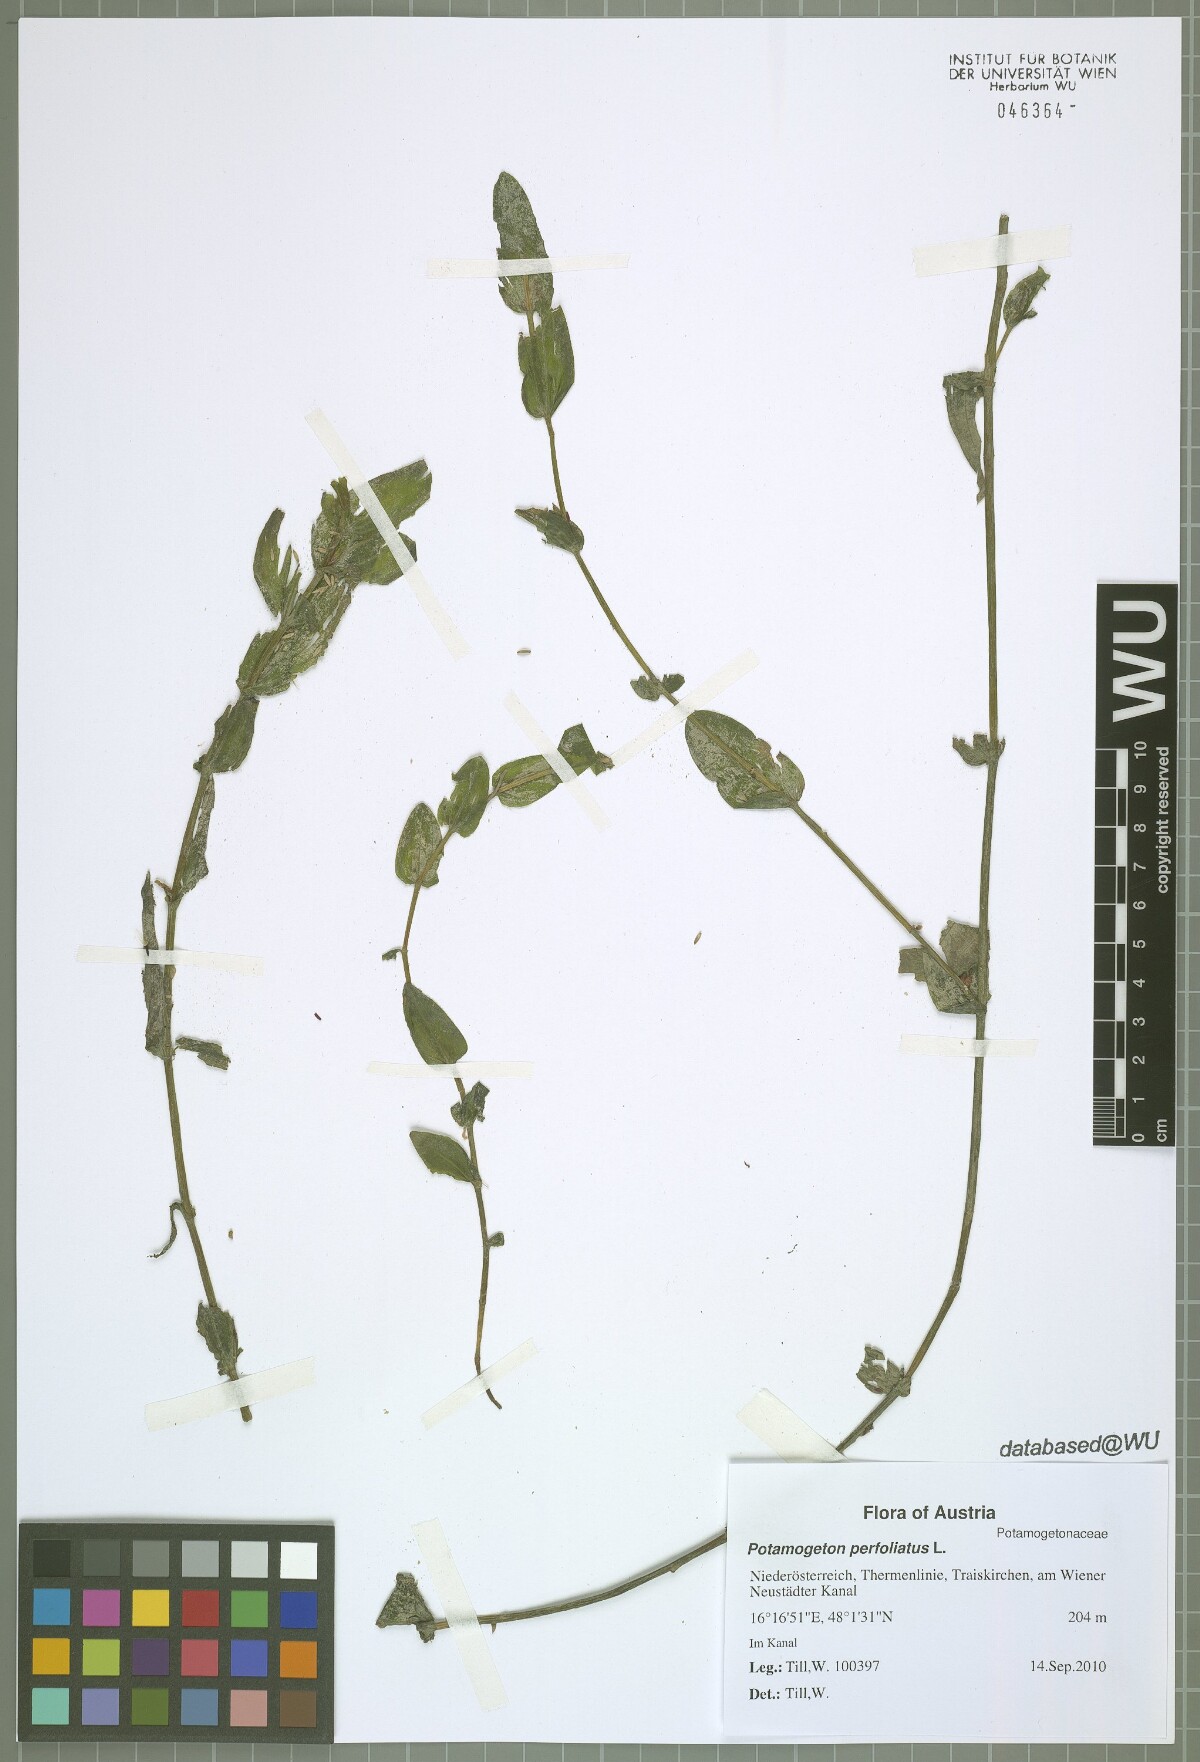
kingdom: Plantae
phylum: Tracheophyta
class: Liliopsida
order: Alismatales
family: Potamogetonaceae
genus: Potamogeton
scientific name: Potamogeton perfoliatus
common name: Perfoliate pondweed
